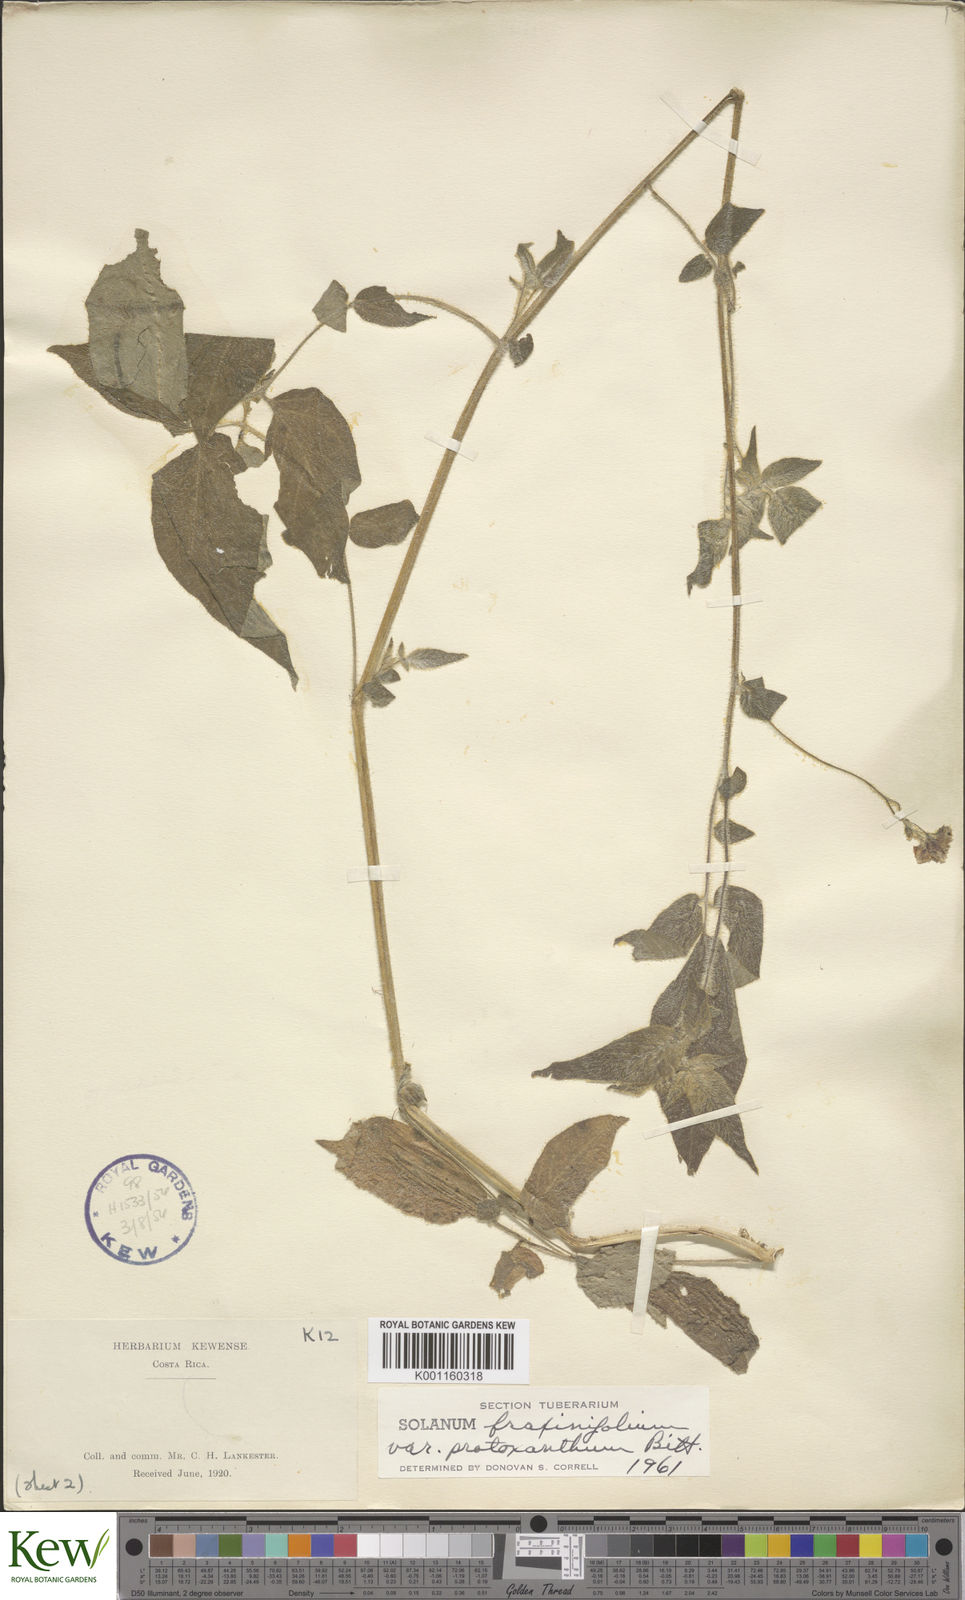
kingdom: Plantae
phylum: Tracheophyta
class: Magnoliopsida
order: Solanales
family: Solanaceae
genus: Solanum
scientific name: Solanum fraxinifolium
